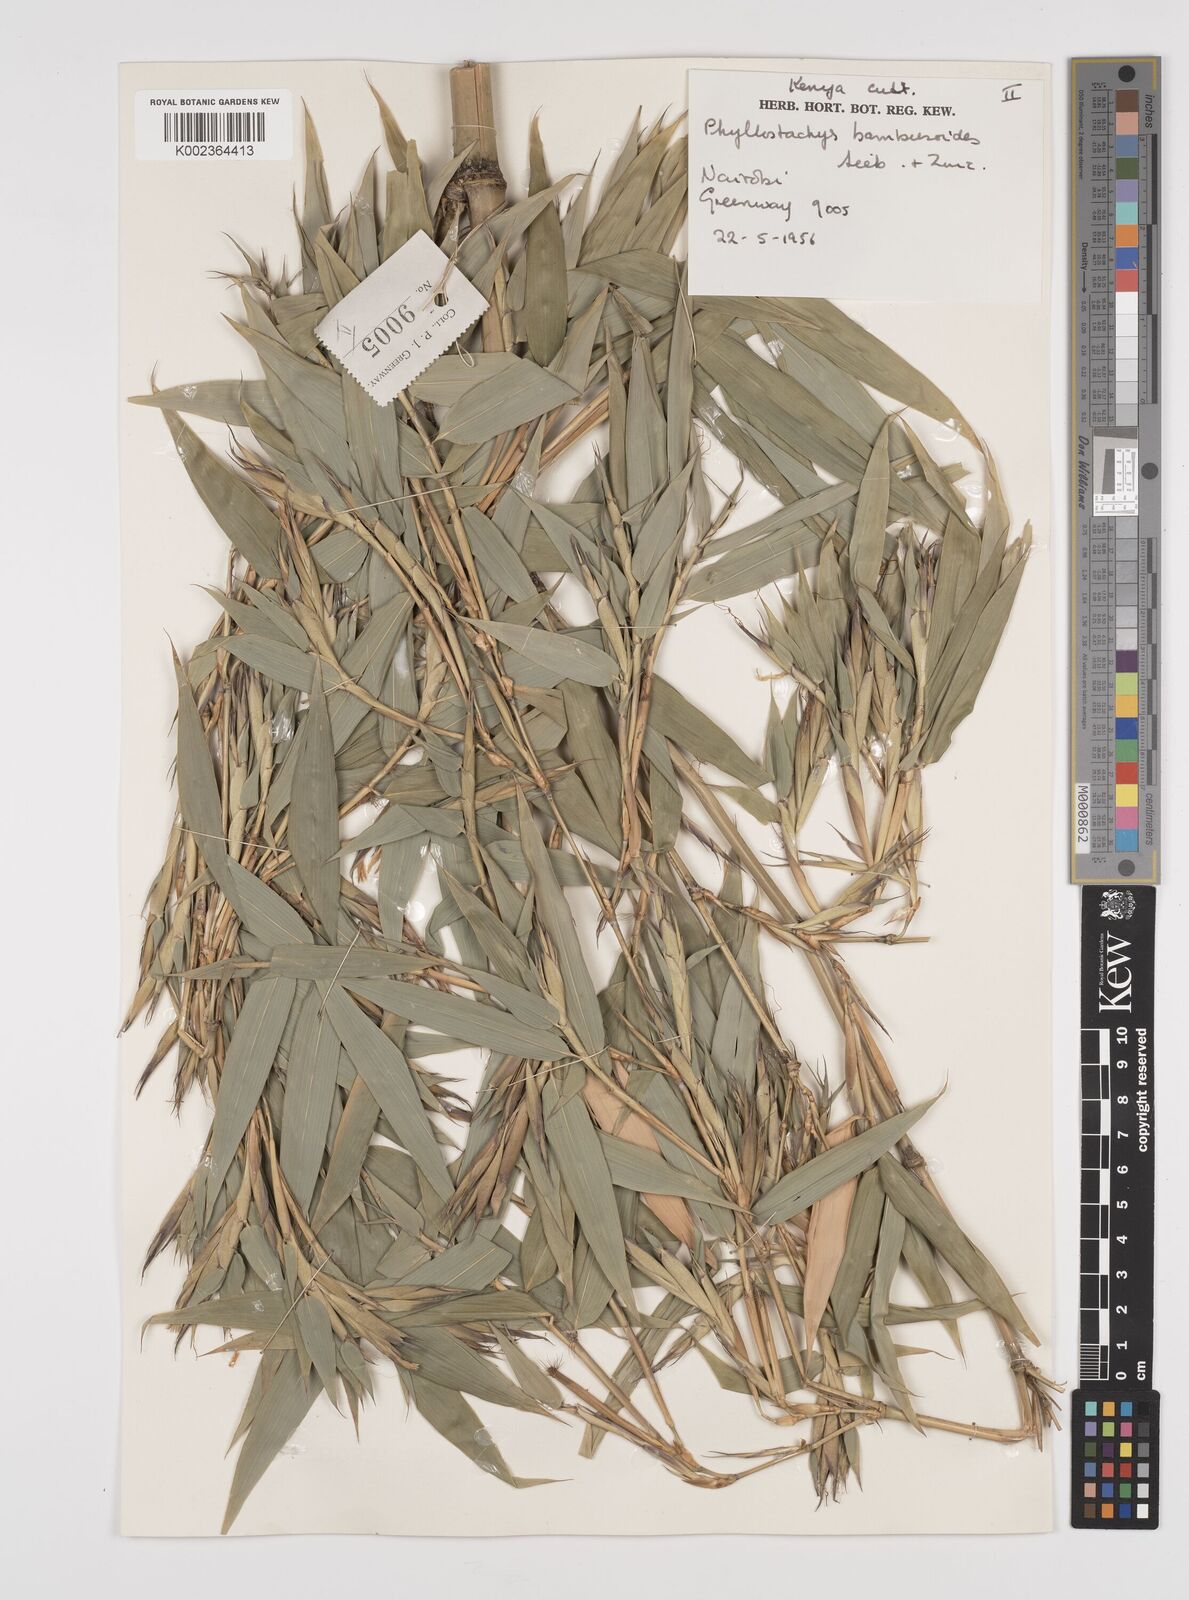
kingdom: Plantae
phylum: Tracheophyta
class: Liliopsida
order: Poales
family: Poaceae
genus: Phyllostachys
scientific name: Phyllostachys reticulata
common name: Bamboo
